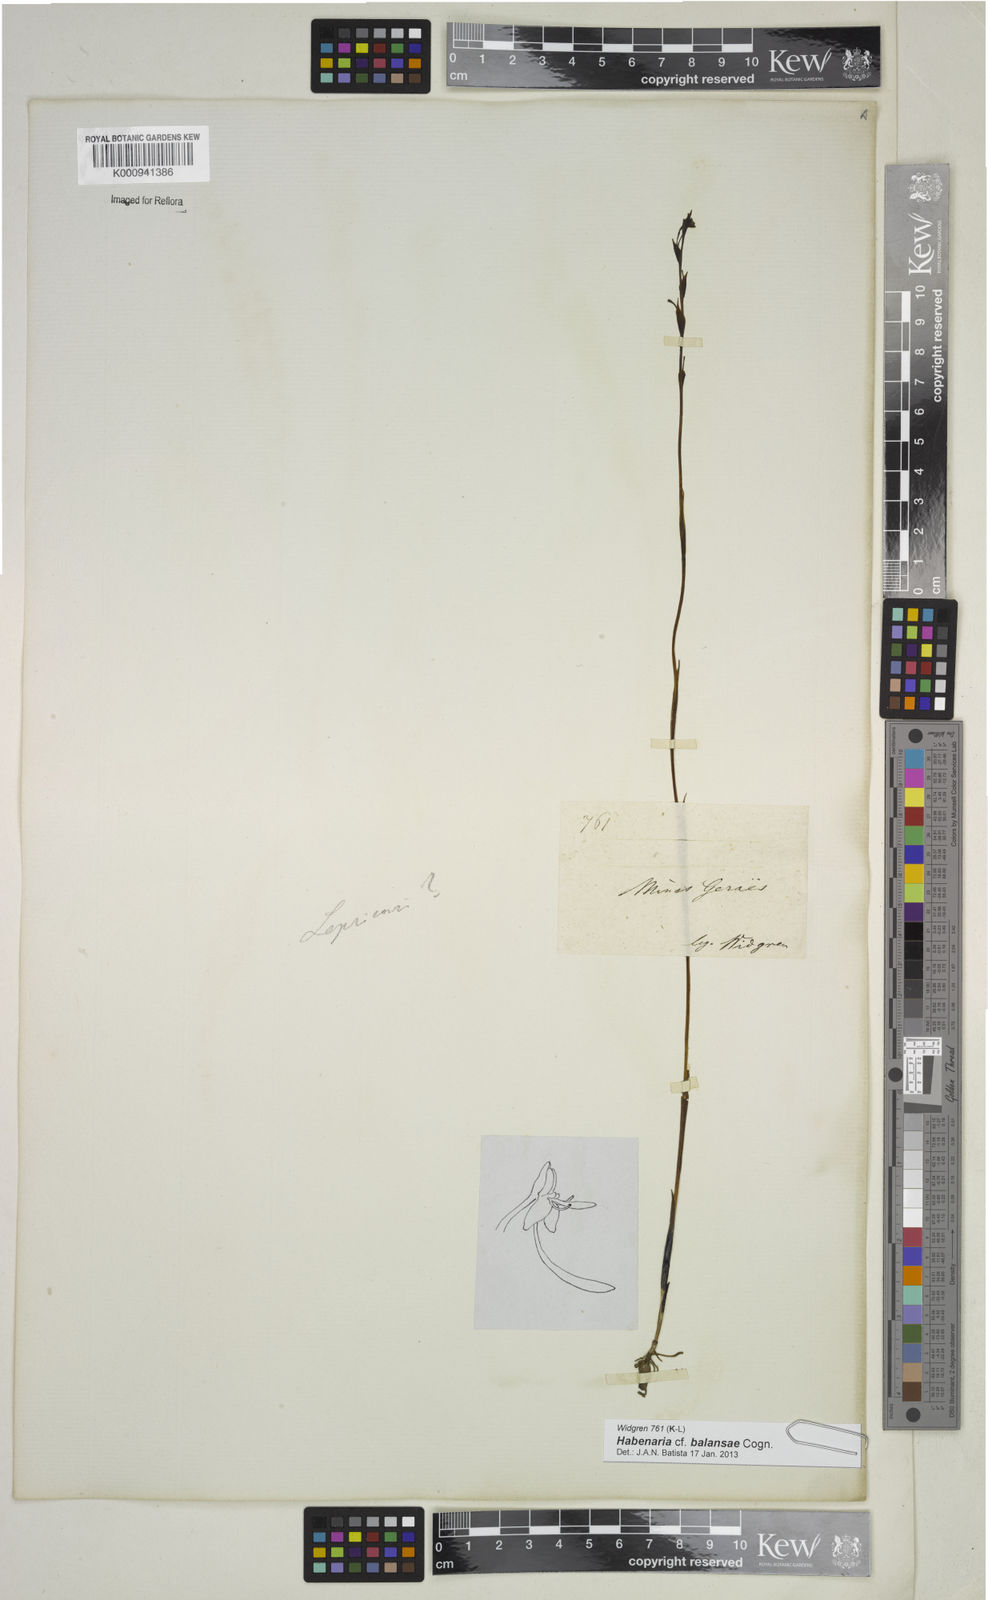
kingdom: Plantae
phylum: Tracheophyta
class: Liliopsida
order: Asparagales
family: Orchidaceae
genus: Habenaria
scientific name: Habenaria balansae
